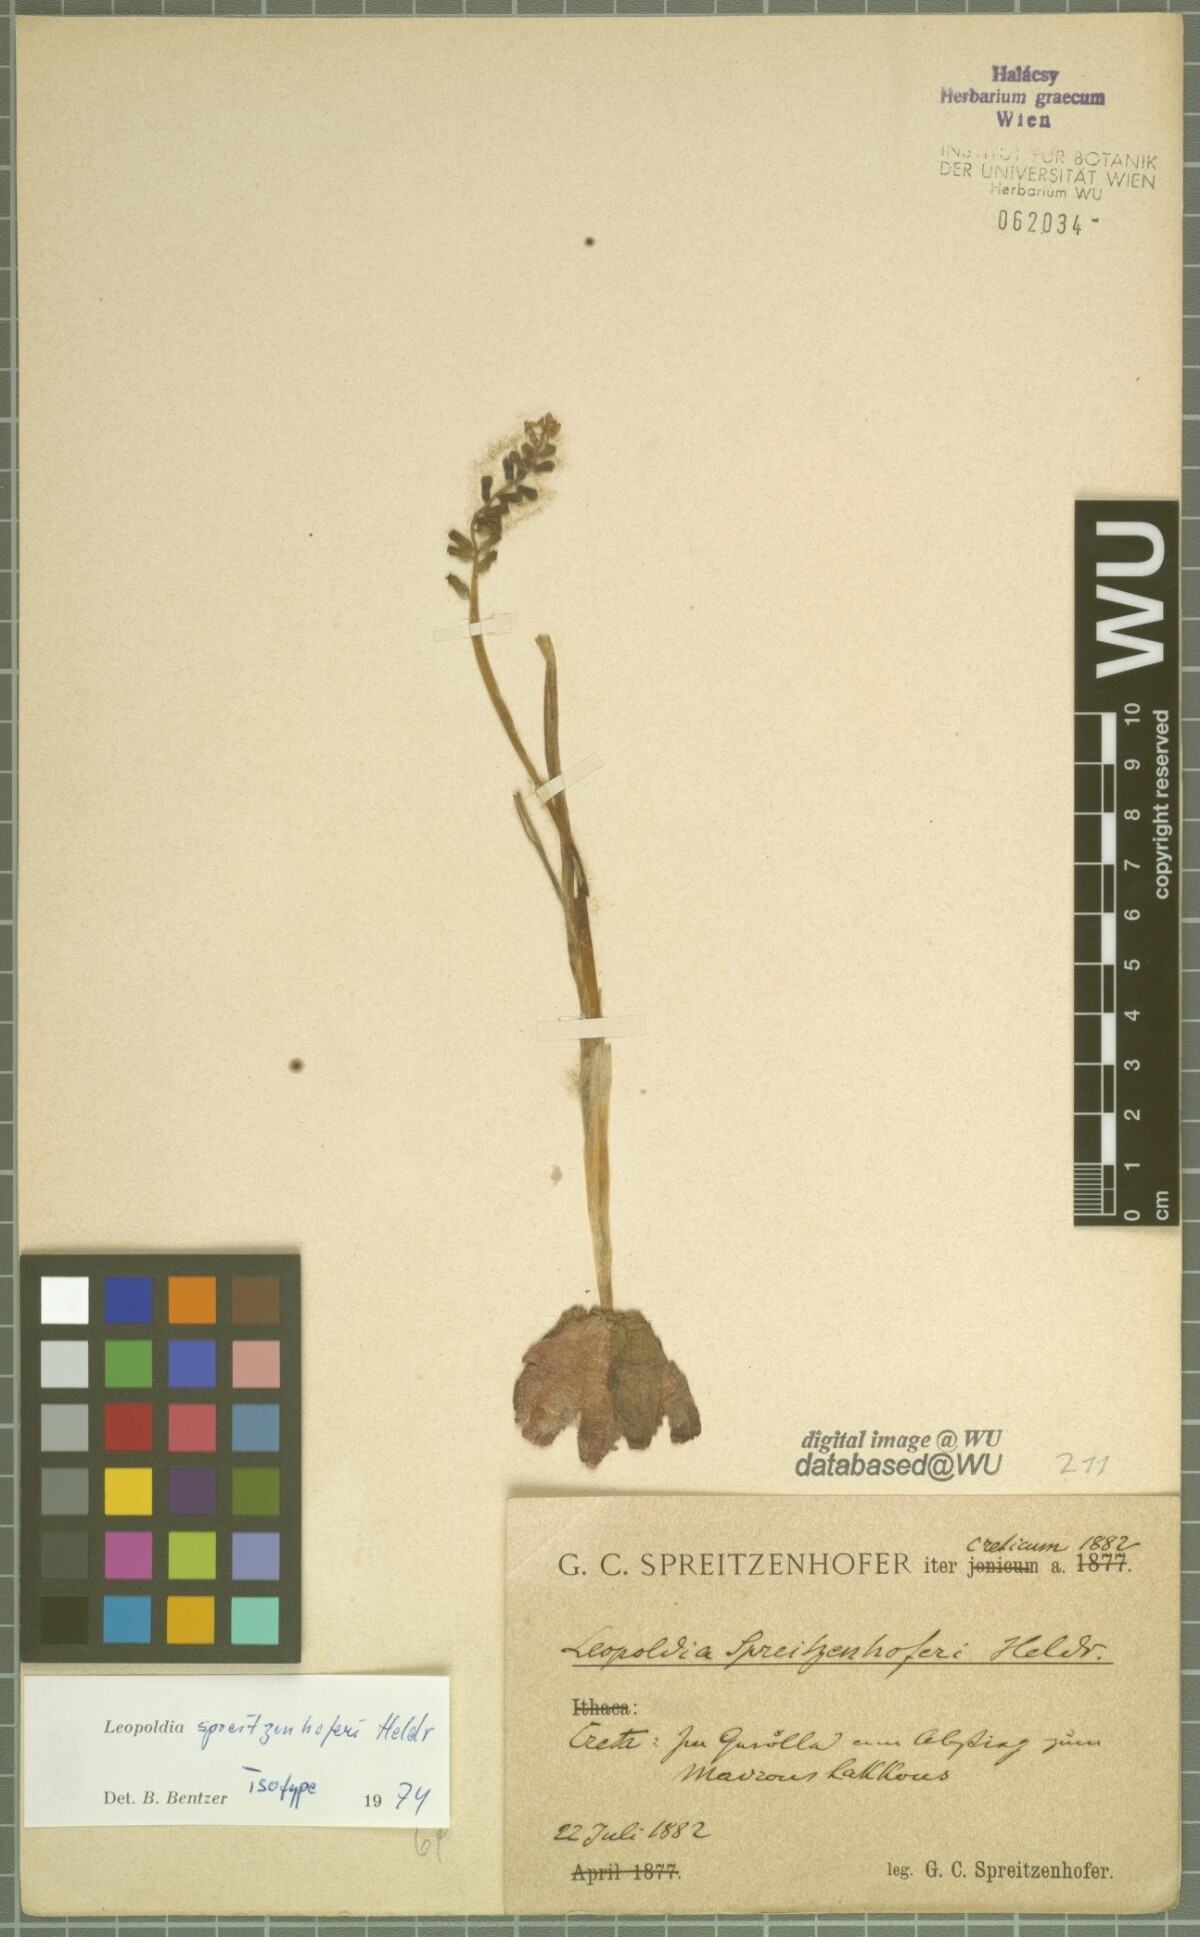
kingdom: Plantae
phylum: Tracheophyta
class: Liliopsida
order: Asparagales
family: Asparagaceae
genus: Muscari
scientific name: Muscari spreitzenhoferi
